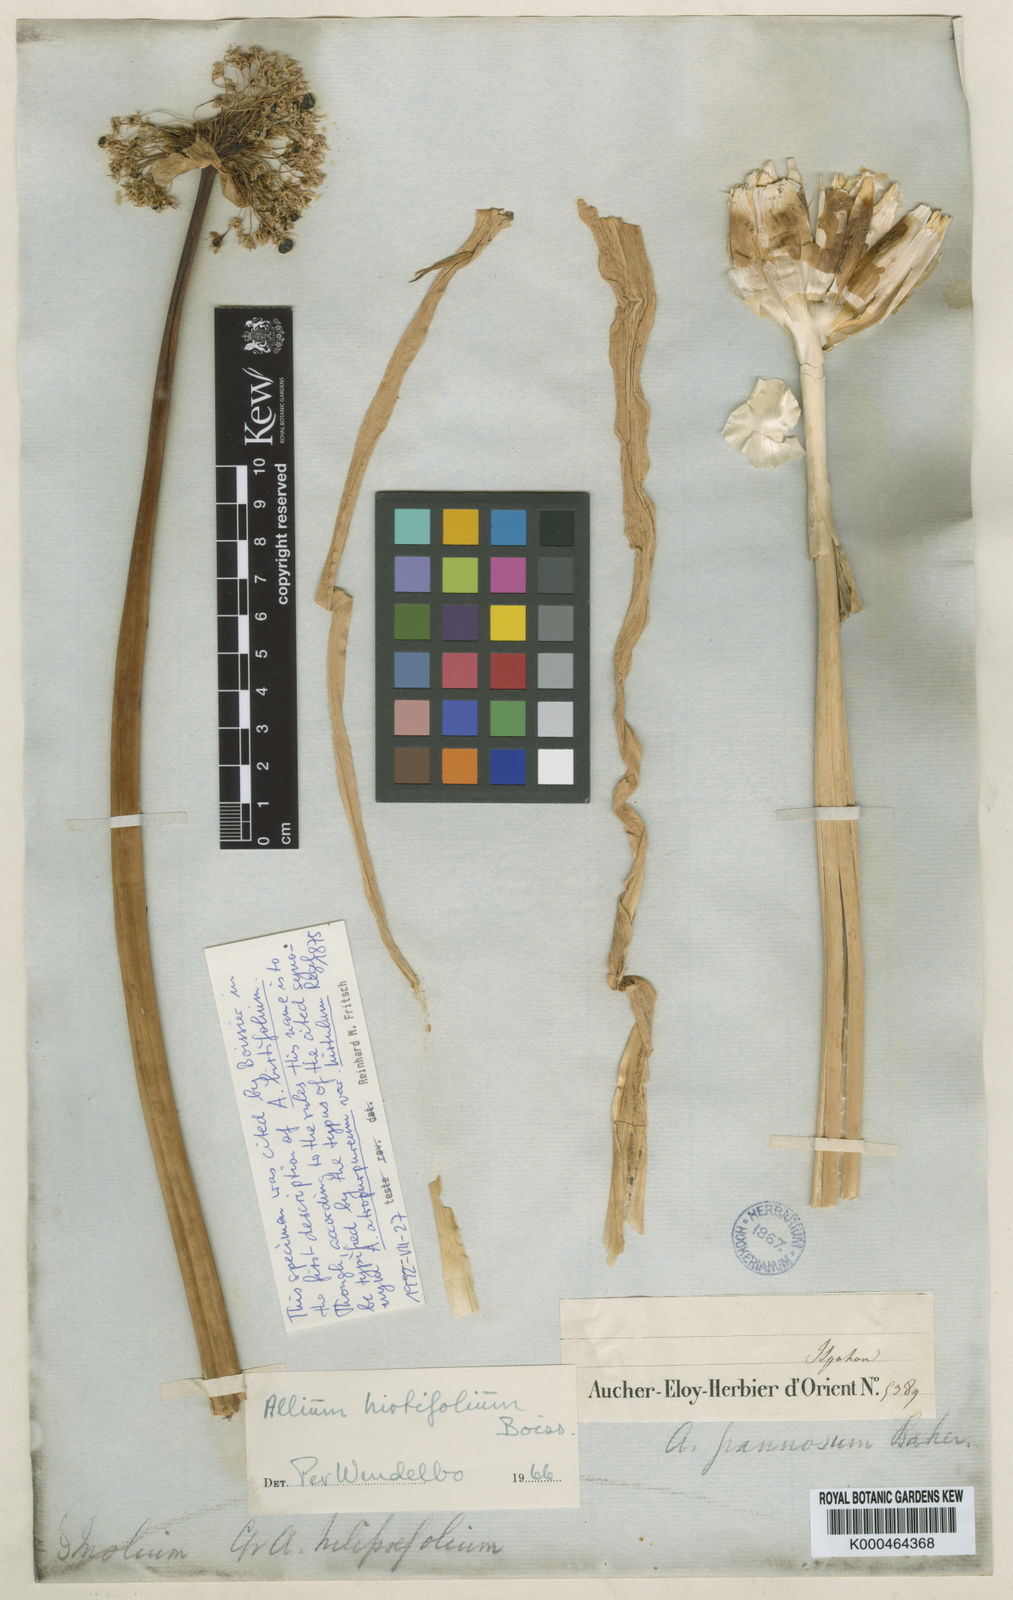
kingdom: Plantae
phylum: Tracheophyta
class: Liliopsida
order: Asparagales
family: Amaryllidaceae
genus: Allium
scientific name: Allium stipitatum
